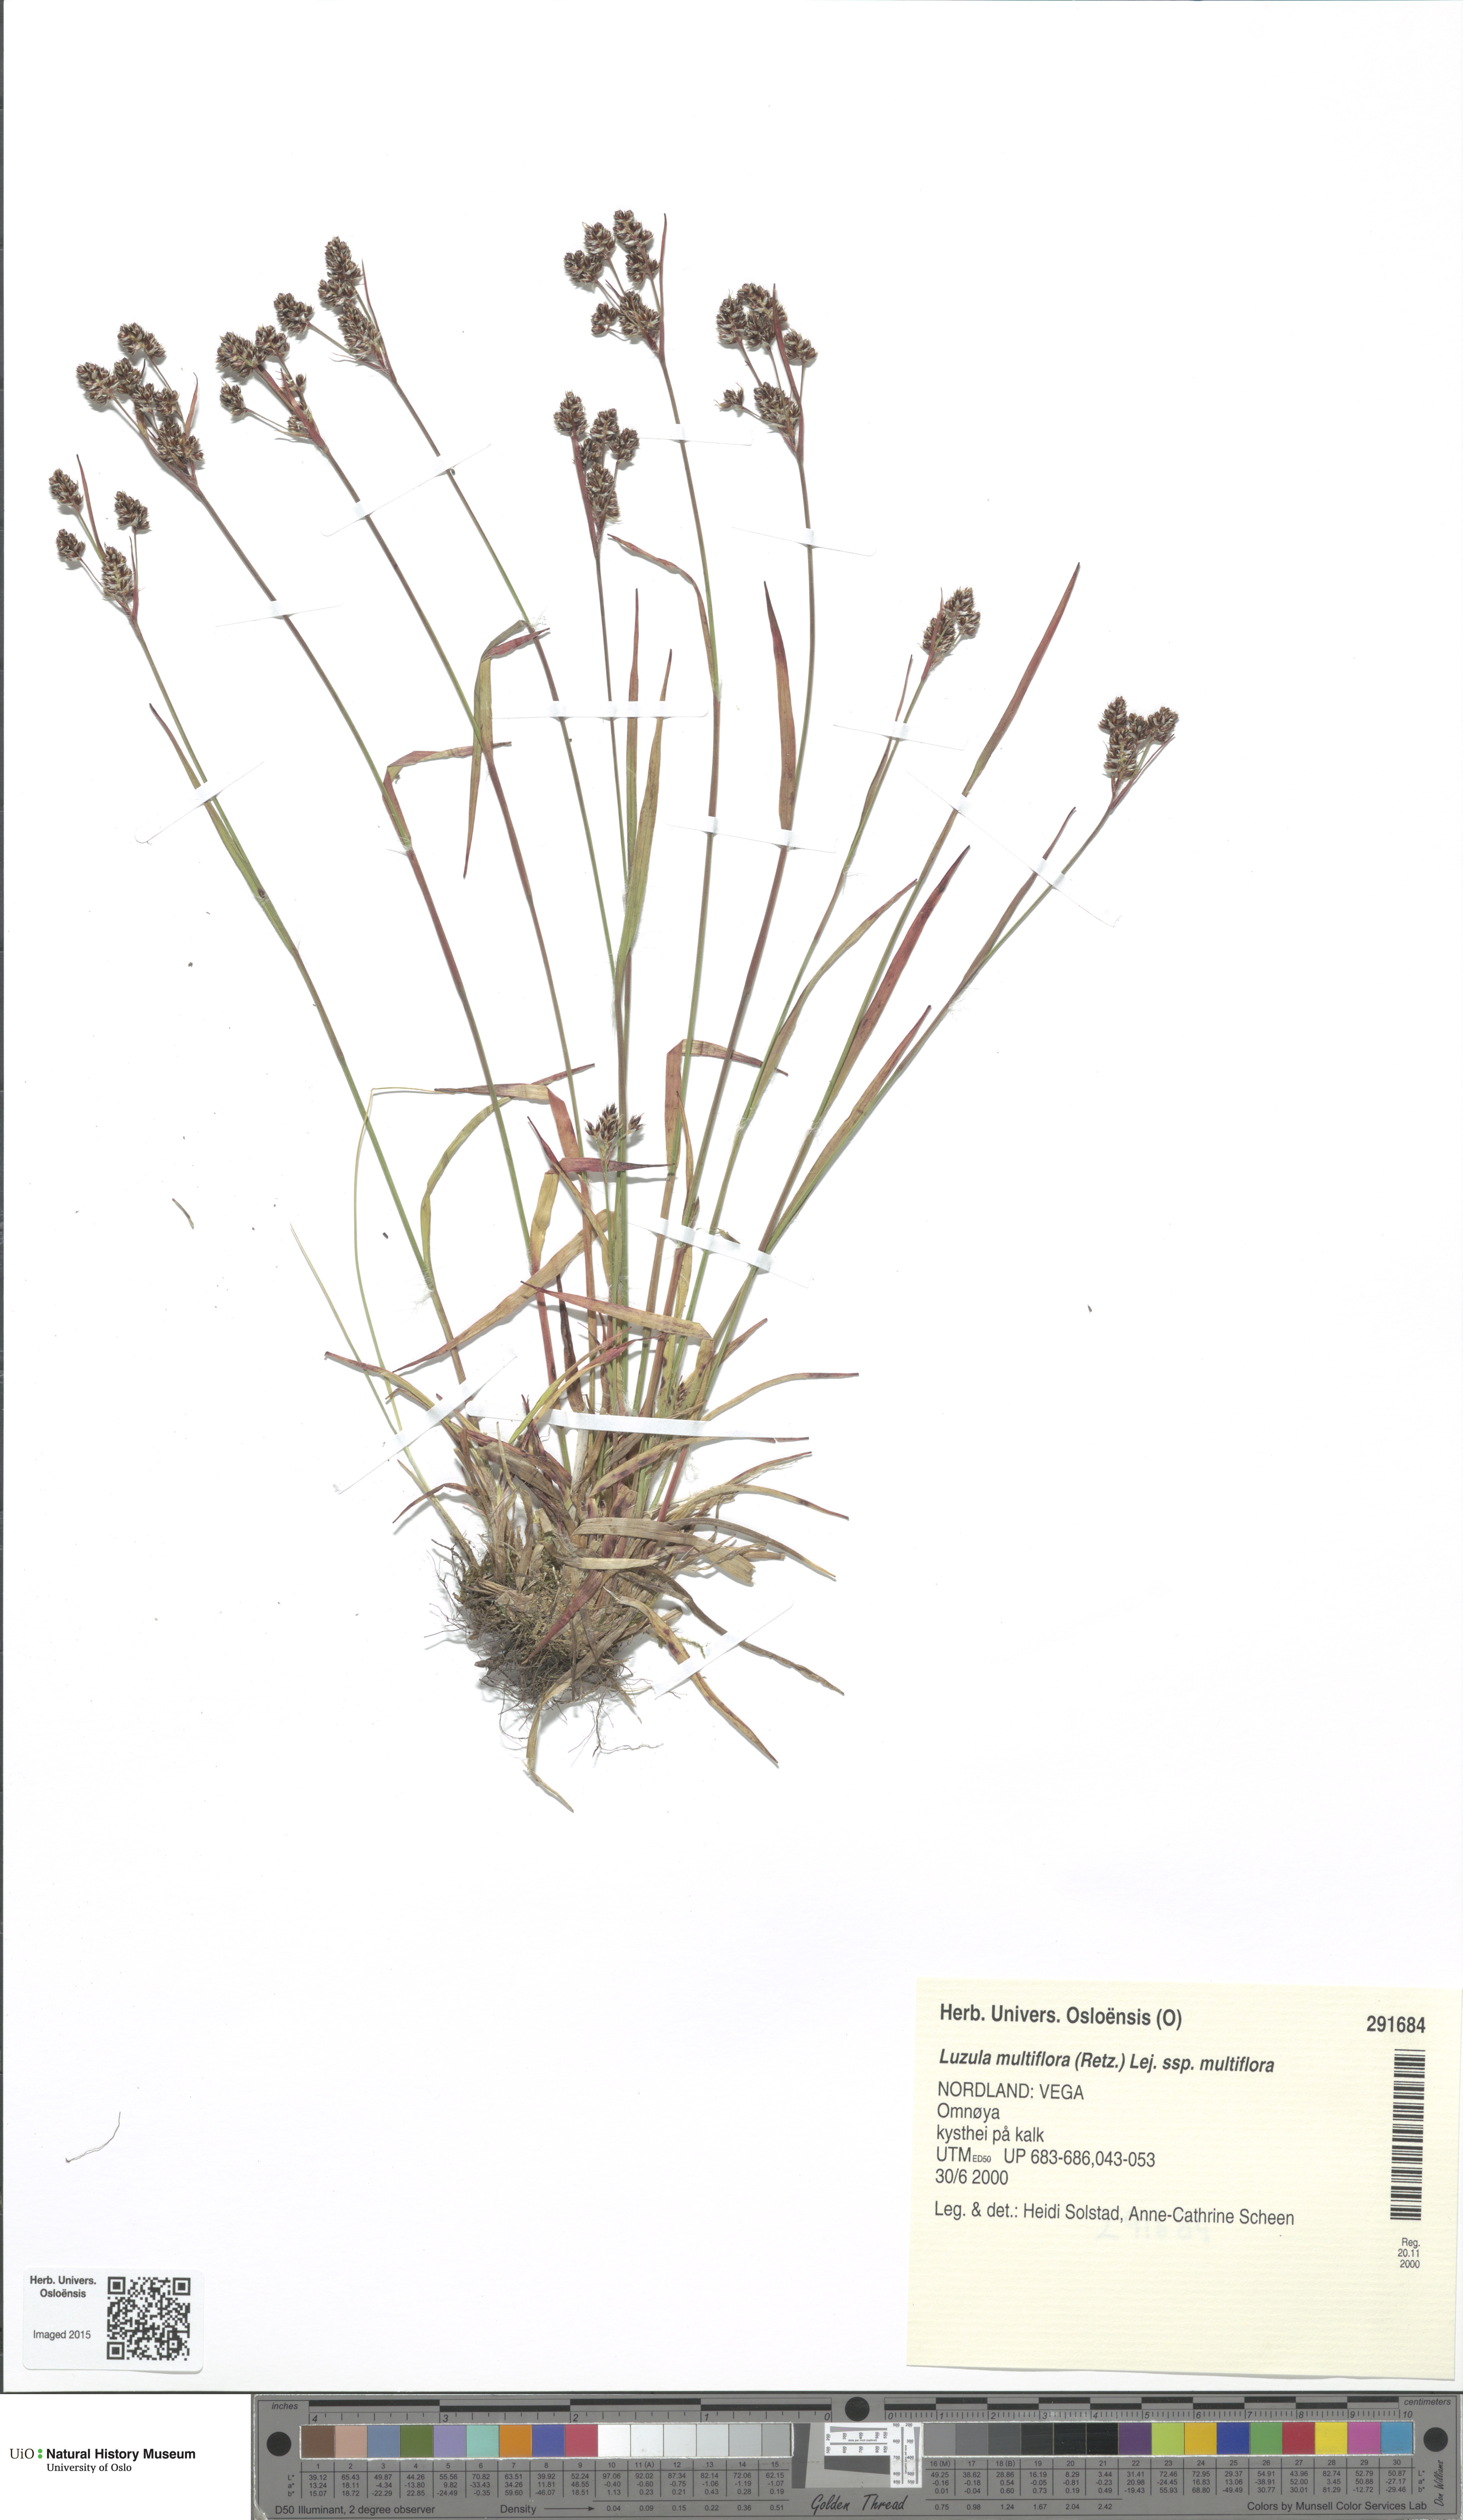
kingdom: Plantae
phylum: Tracheophyta
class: Liliopsida
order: Poales
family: Juncaceae
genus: Luzula
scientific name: Luzula multiflora
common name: Heath wood-rush
